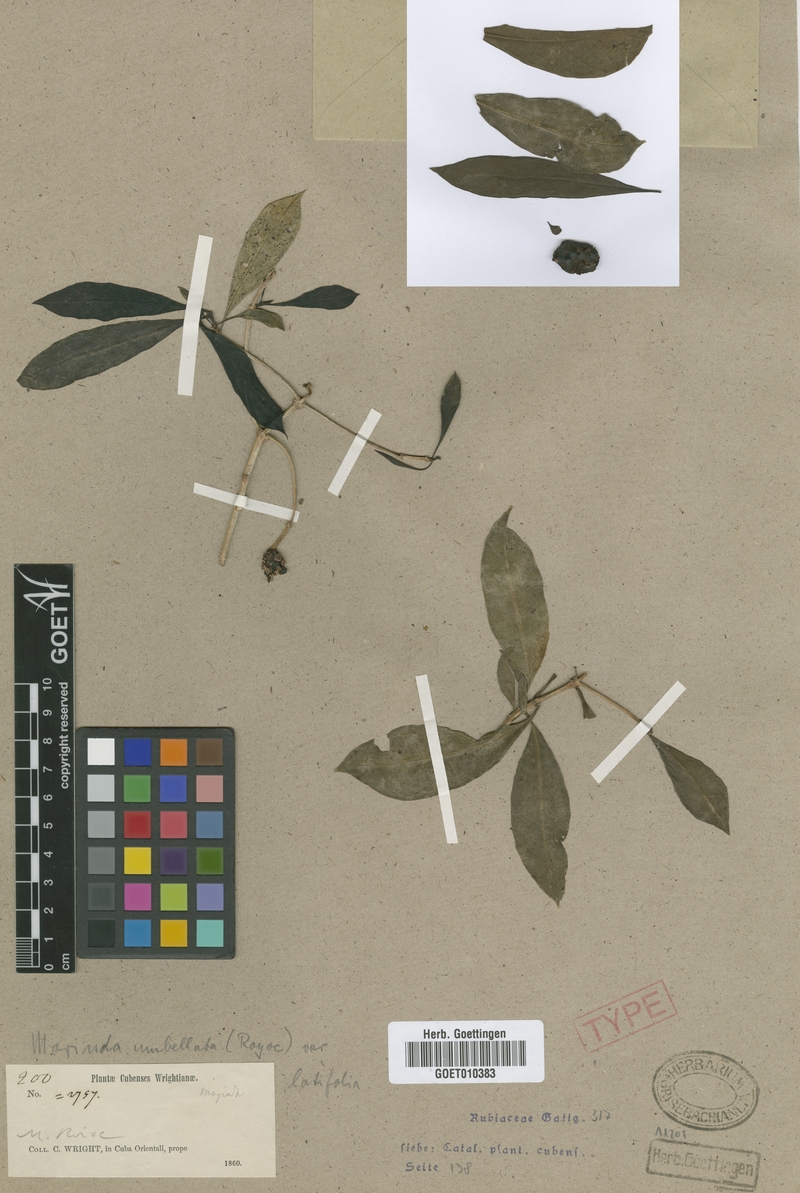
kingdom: Plantae
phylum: Tracheophyta
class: Magnoliopsida
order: Gentianales
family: Rubiaceae
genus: Morinda
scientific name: Morinda royoc
